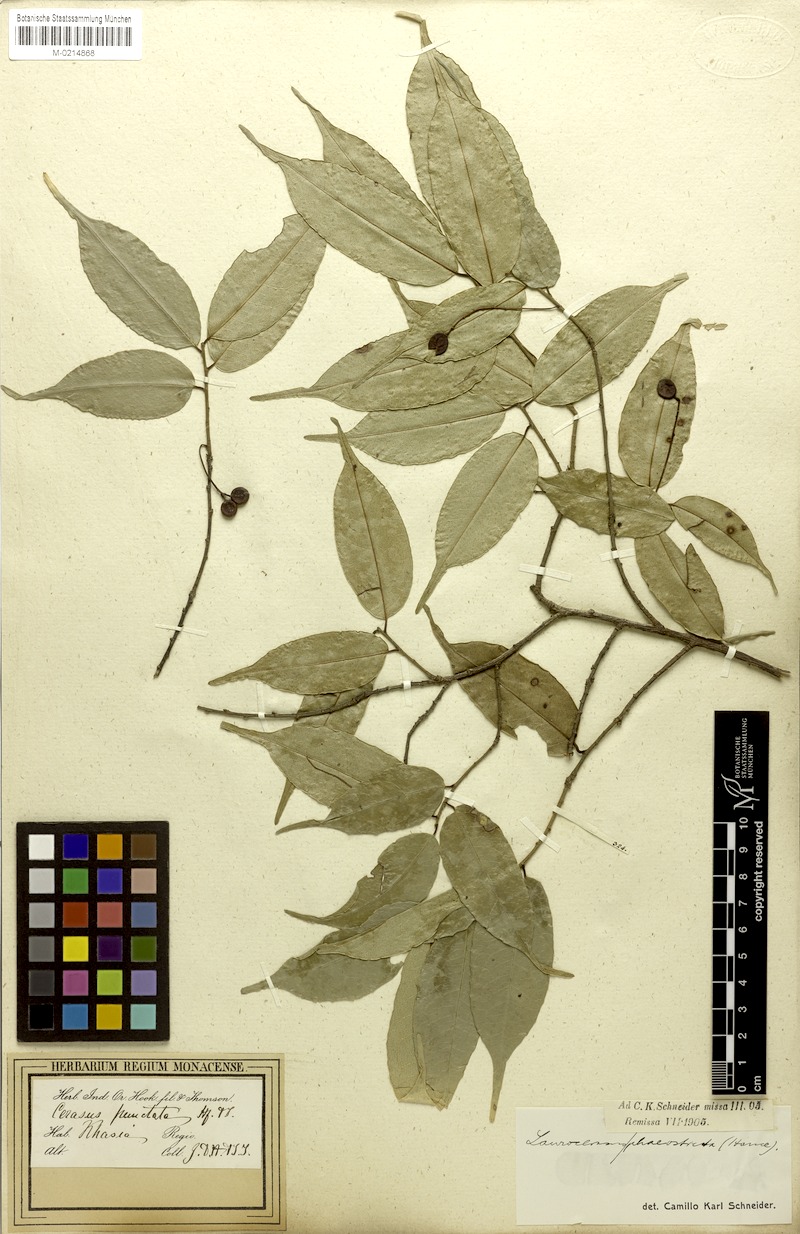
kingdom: Plantae
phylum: Tracheophyta
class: Magnoliopsida
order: Rosales
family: Rosaceae
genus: Prunus
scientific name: Prunus phaeosticta
